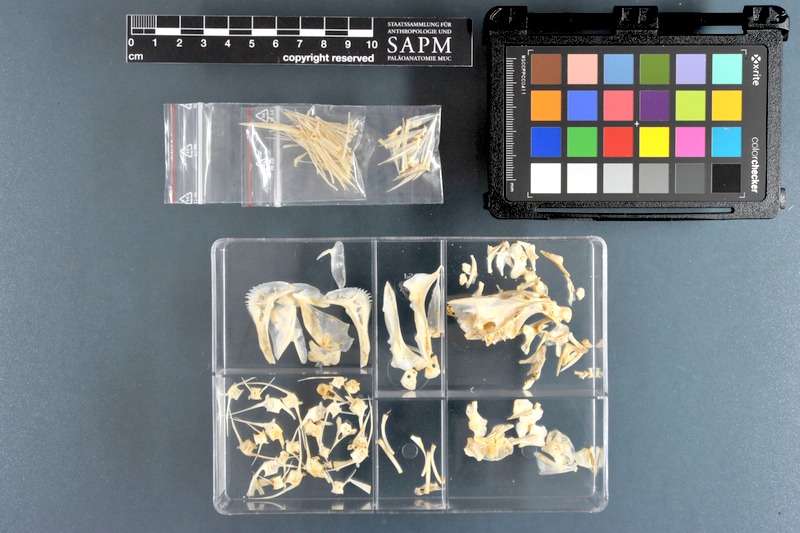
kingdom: Animalia
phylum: Chordata
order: Perciformes
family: Haemulidae
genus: Pomadasys
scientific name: Pomadasys incisus
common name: Bastard grunt
